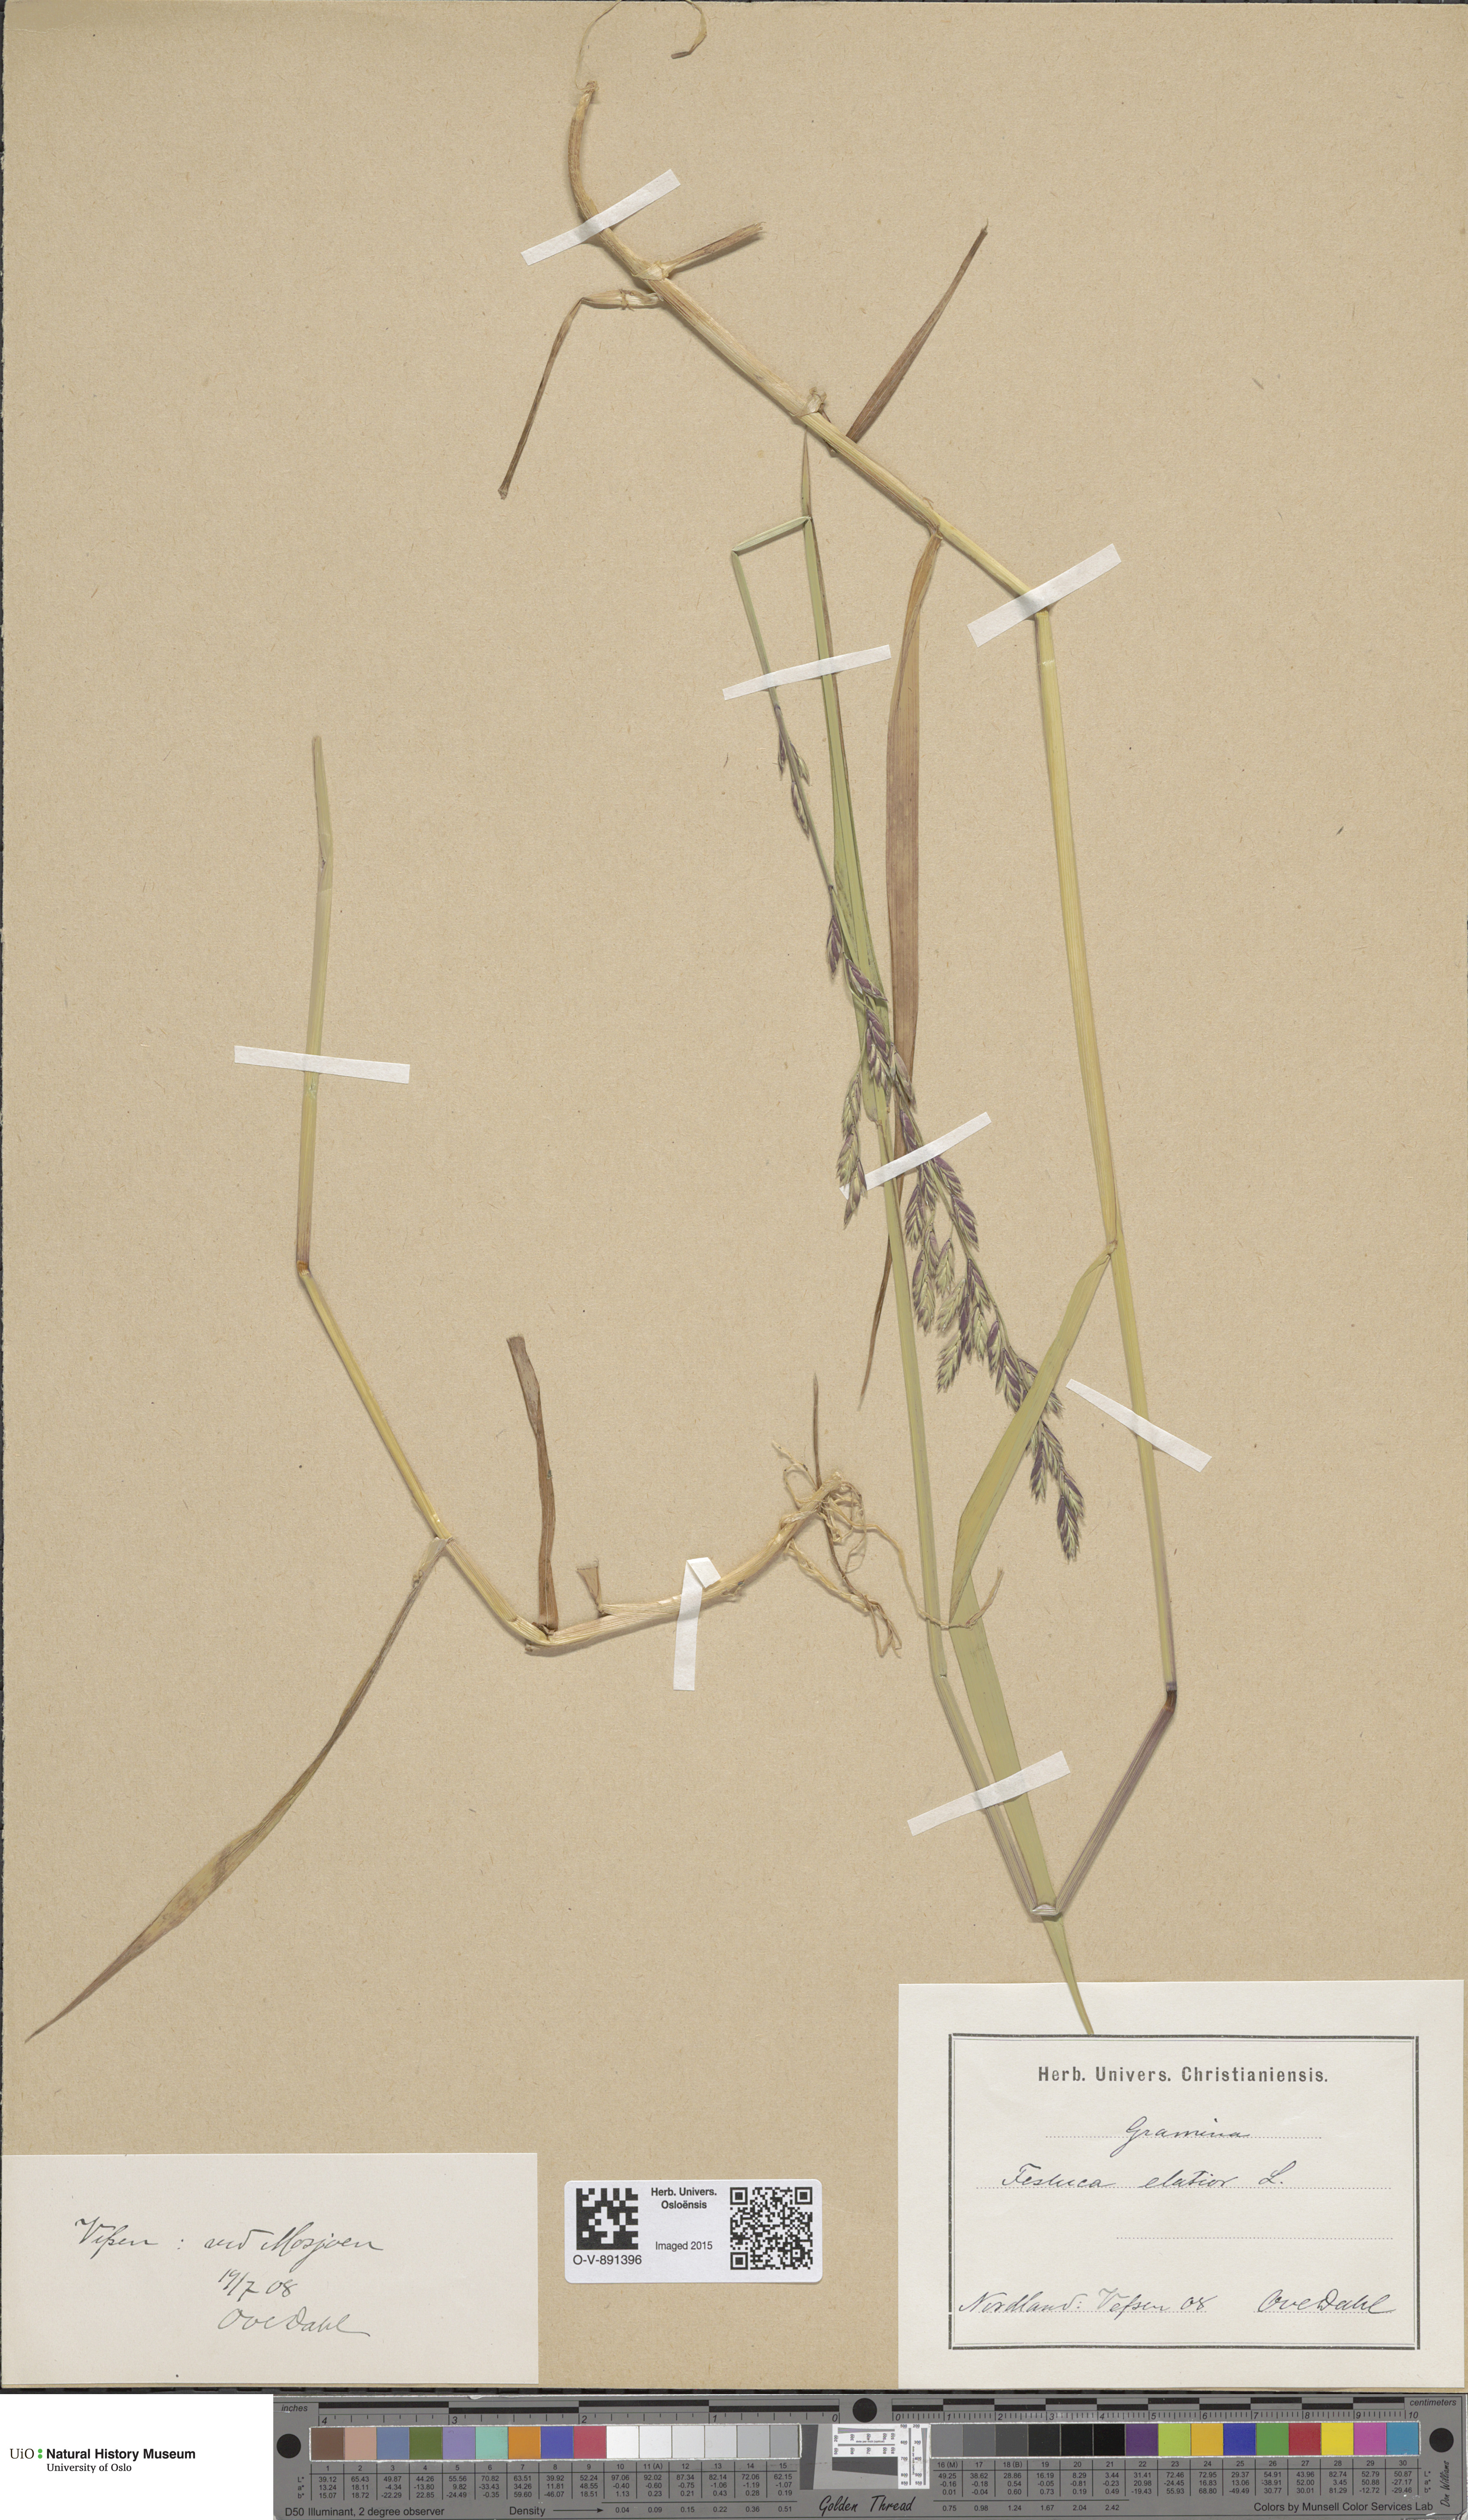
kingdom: Plantae
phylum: Tracheophyta
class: Liliopsida
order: Poales
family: Poaceae
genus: Lolium
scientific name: Lolium arundinaceum
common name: Reed fescue
